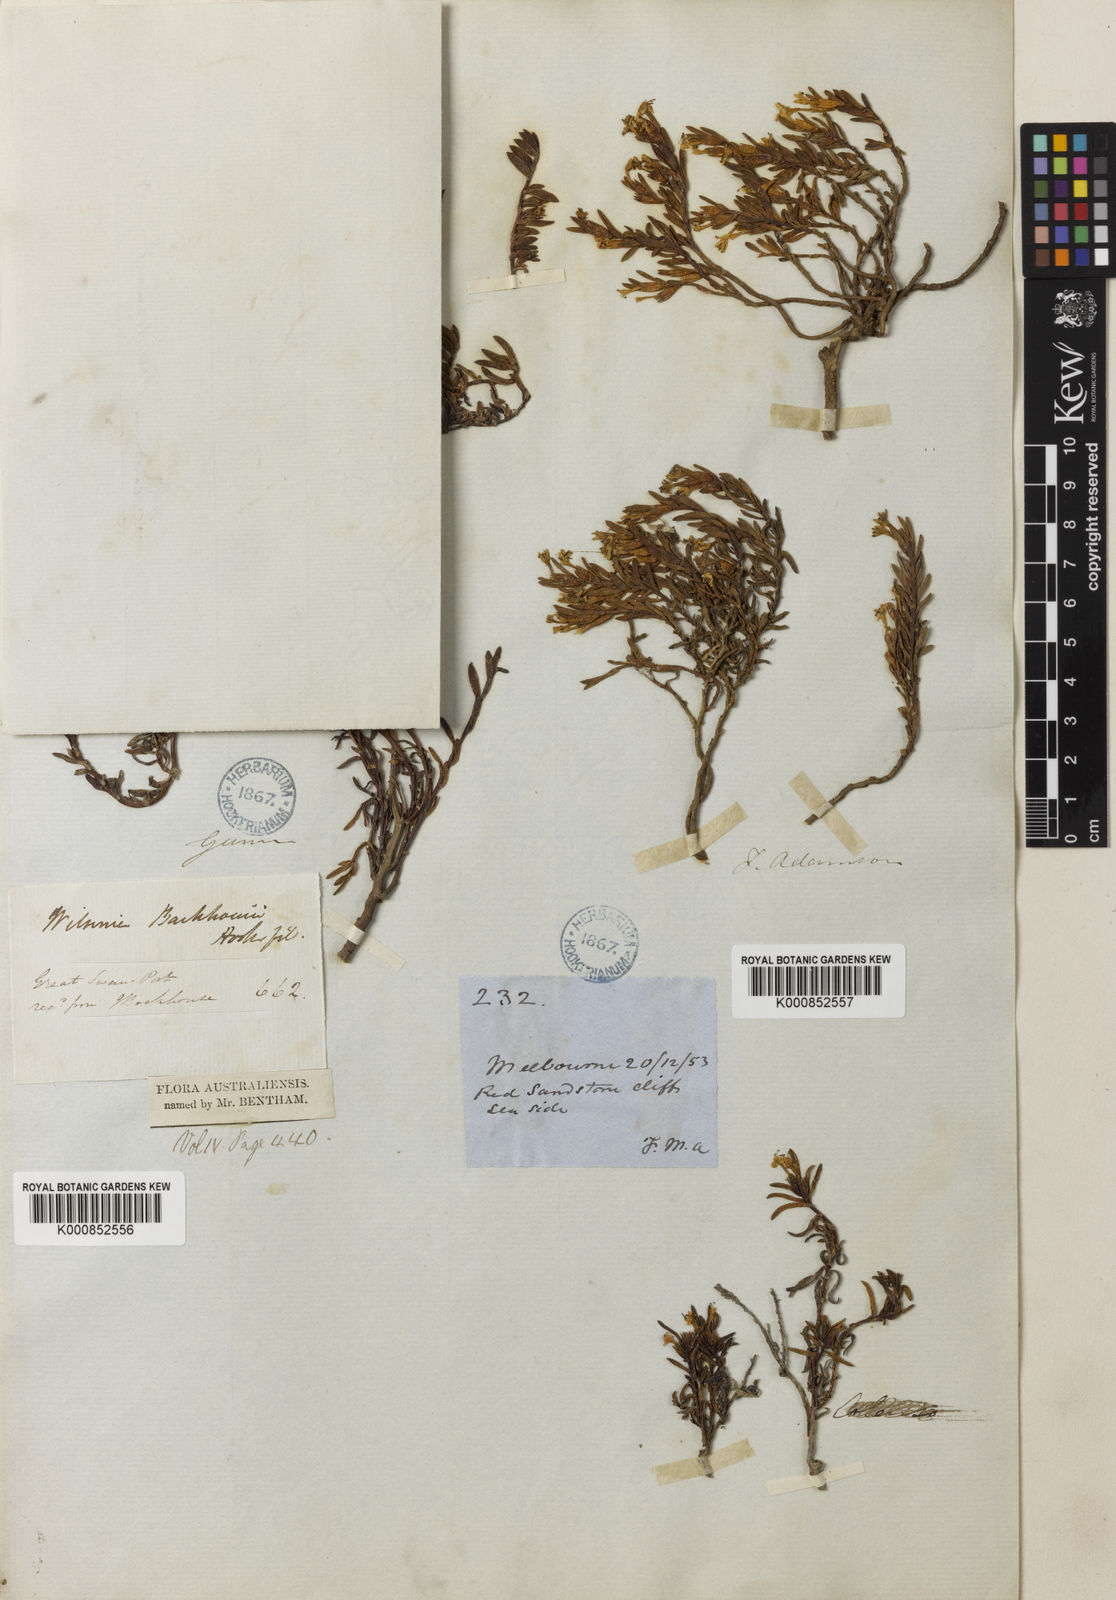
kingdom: Plantae
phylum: Tracheophyta
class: Magnoliopsida
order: Solanales
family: Convolvulaceae
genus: Wilsonia
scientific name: Wilsonia backhousei
